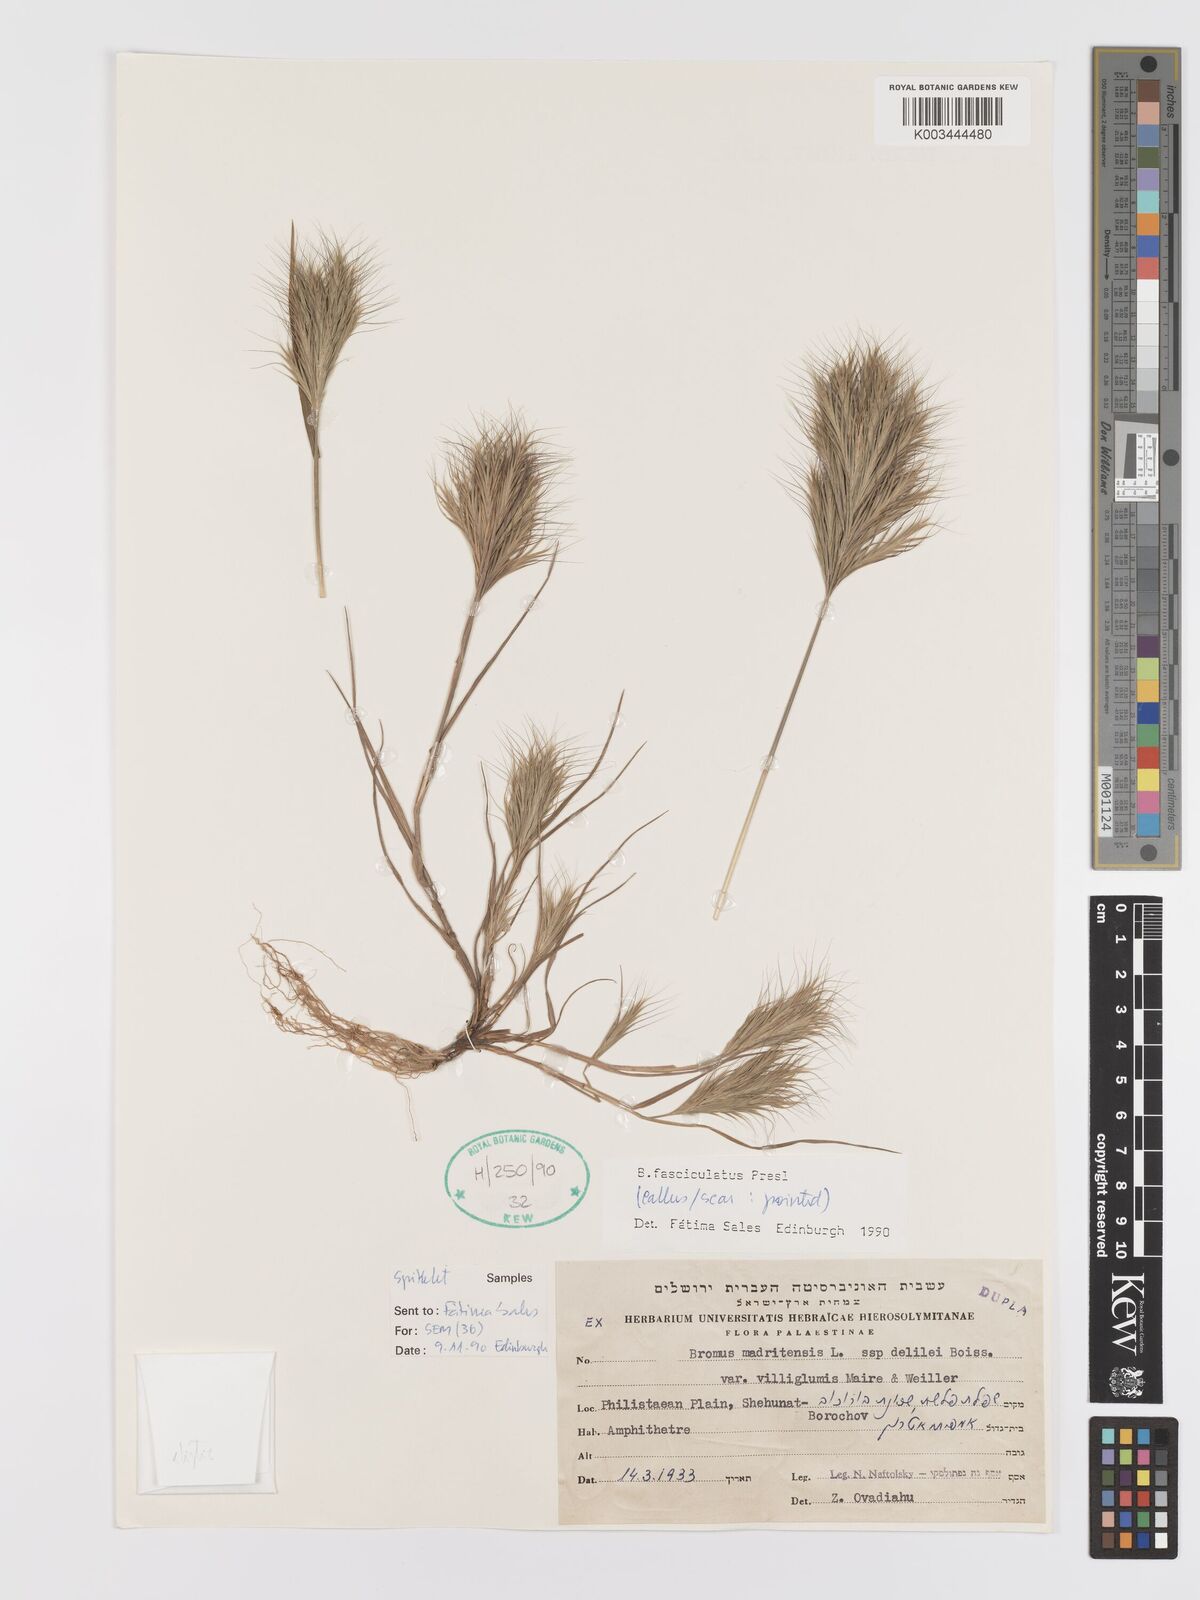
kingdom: Plantae
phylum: Tracheophyta
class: Liliopsida
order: Poales
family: Poaceae
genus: Bromus
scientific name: Bromus fasciculatus
